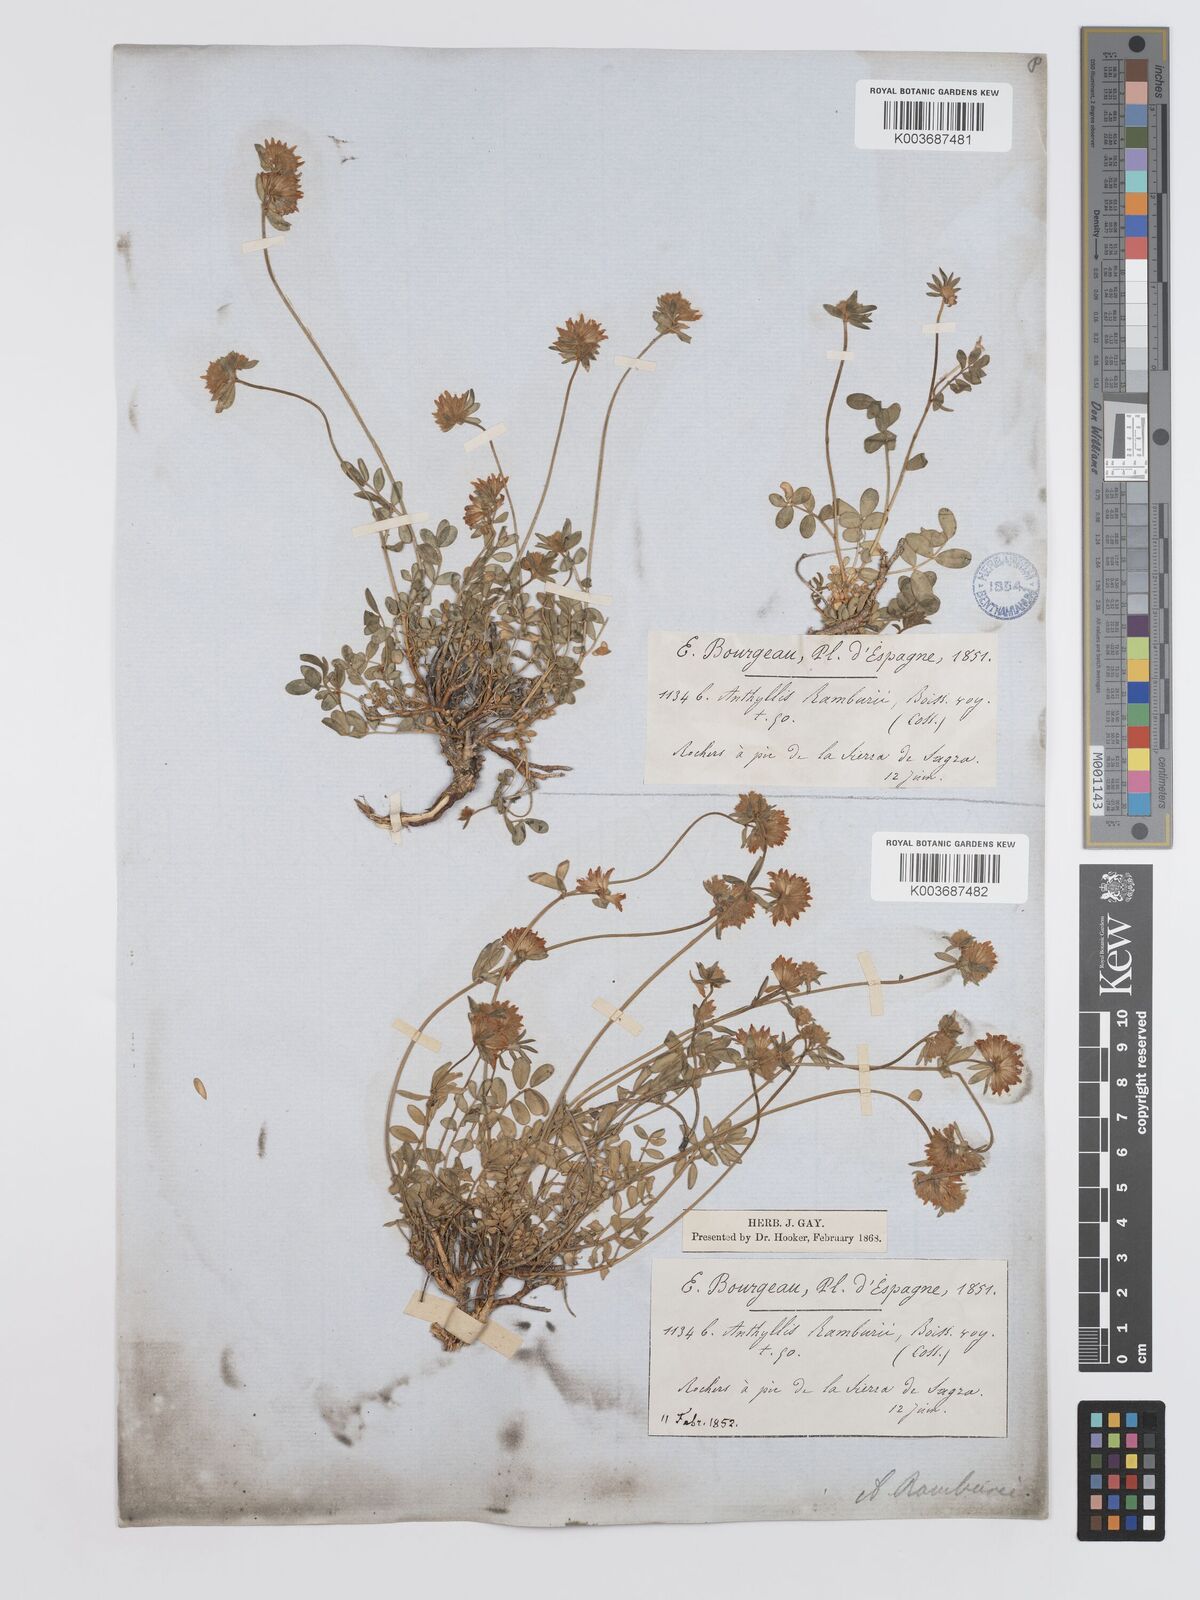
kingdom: Plantae
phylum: Tracheophyta
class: Magnoliopsida
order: Fabales
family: Fabaceae
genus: Anthyllis
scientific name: Anthyllis ramburei
